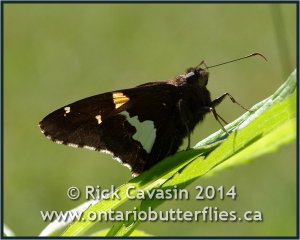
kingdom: Animalia
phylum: Arthropoda
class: Insecta
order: Lepidoptera
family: Hesperiidae
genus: Epargyreus
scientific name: Epargyreus clarus
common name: Silver-spotted Skipper
